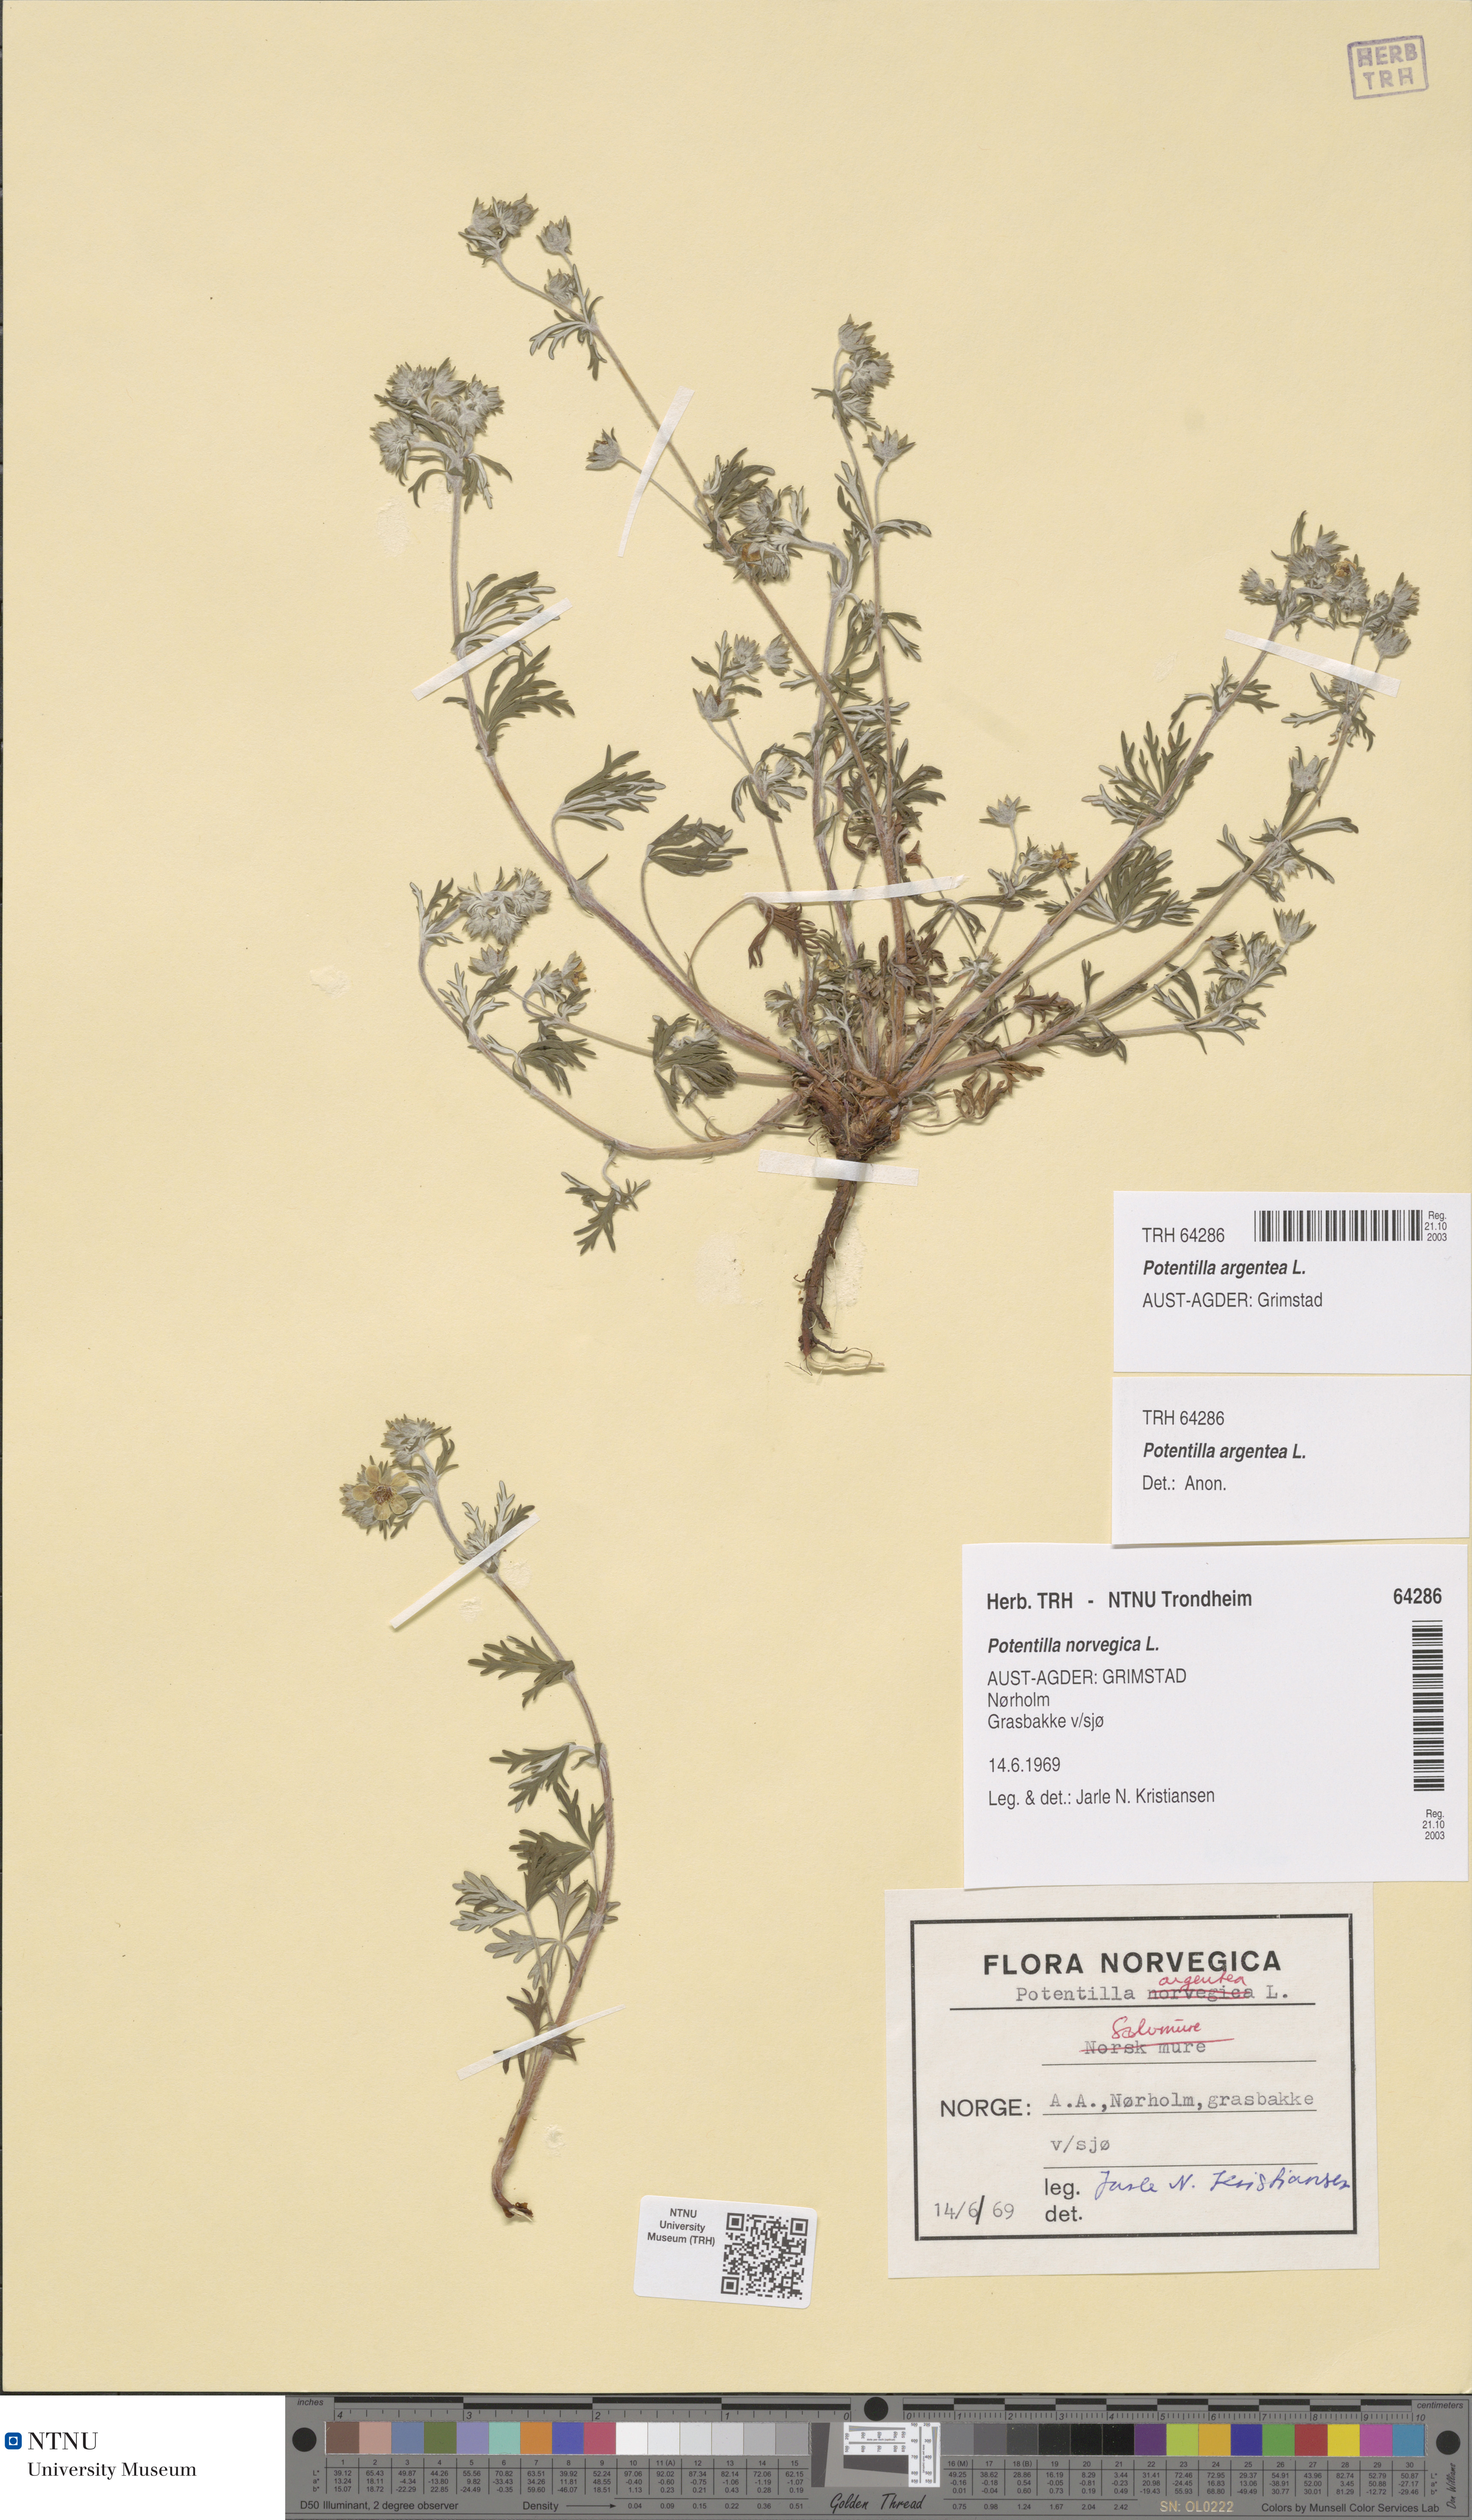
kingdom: Plantae
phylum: Tracheophyta
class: Magnoliopsida
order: Rosales
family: Rosaceae
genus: Potentilla
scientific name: Potentilla argentea
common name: Hoary cinquefoil
